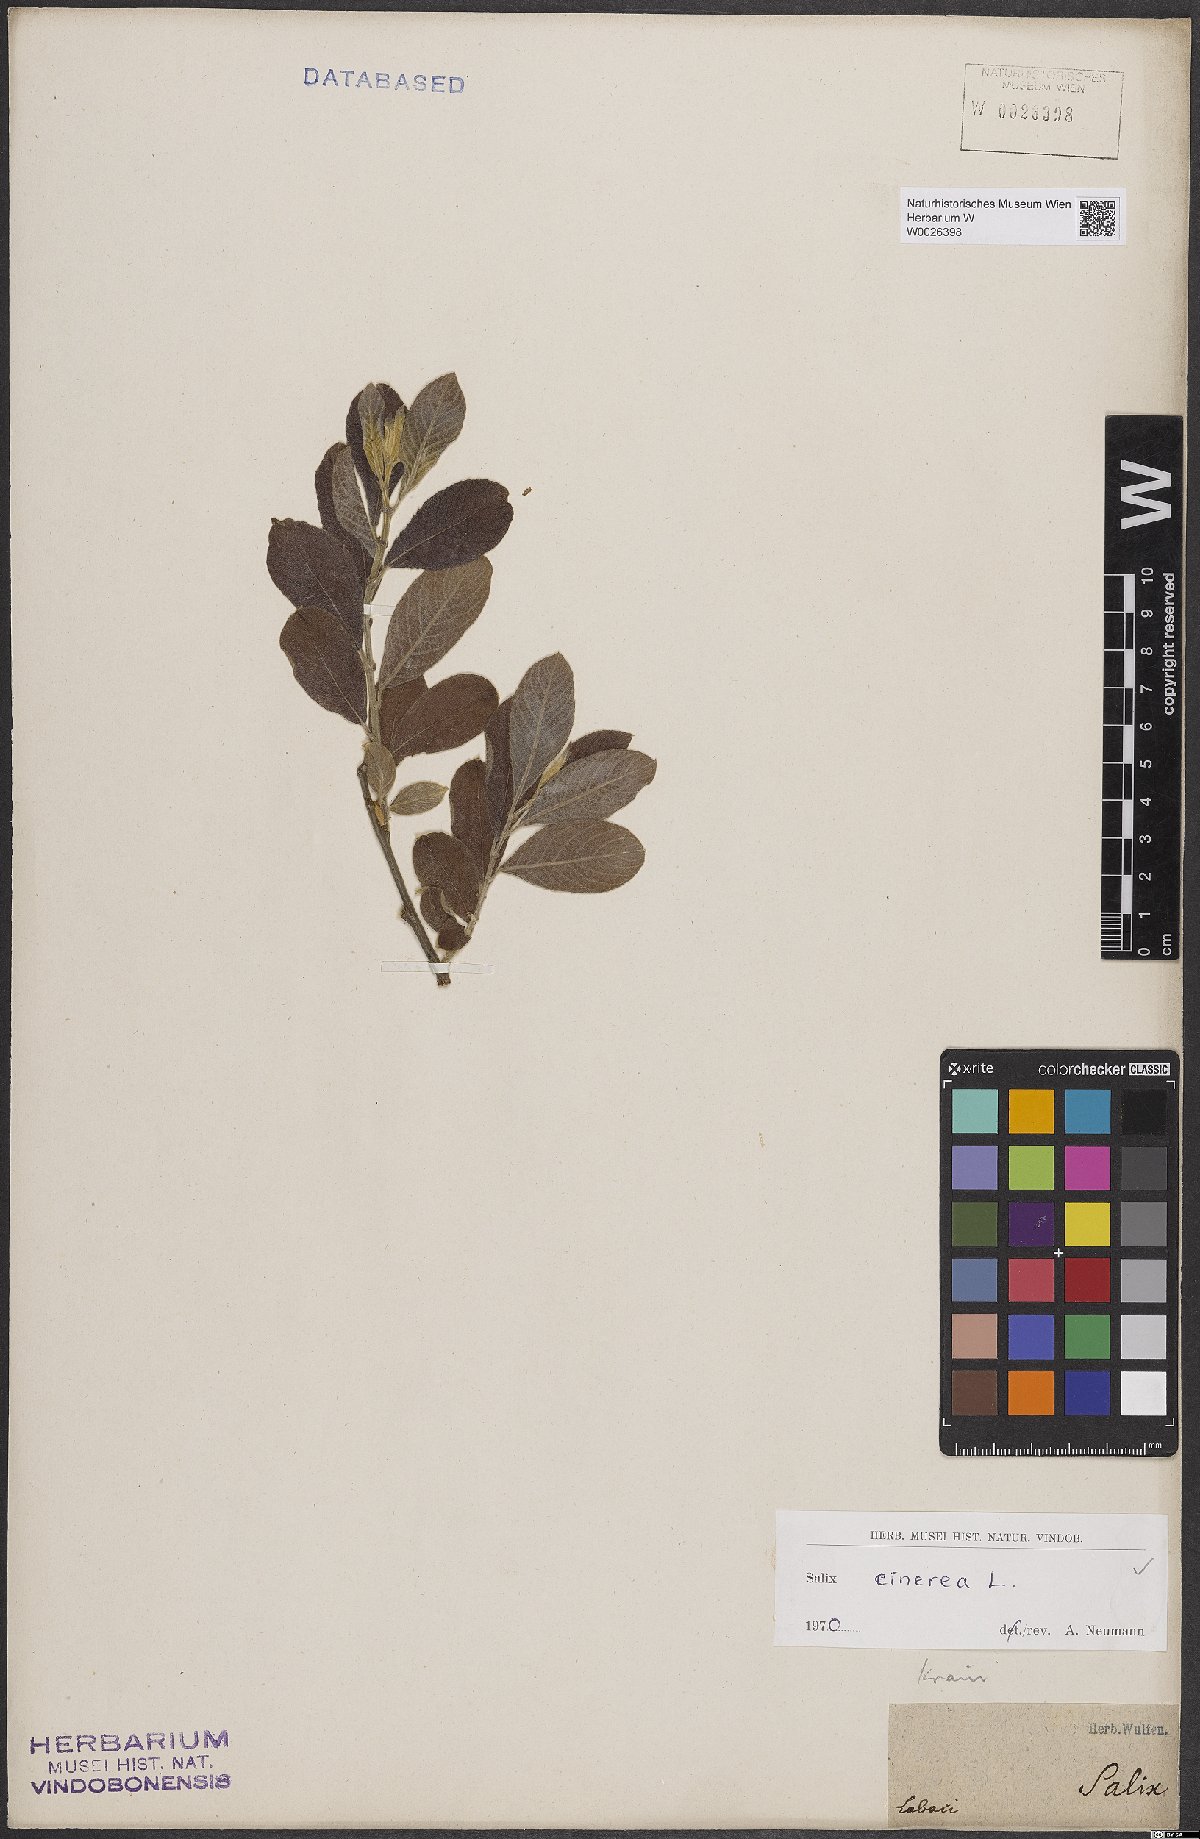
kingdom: Plantae
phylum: Tracheophyta
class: Magnoliopsida
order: Malpighiales
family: Salicaceae
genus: Salix
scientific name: Salix cinerea
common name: Common sallow
